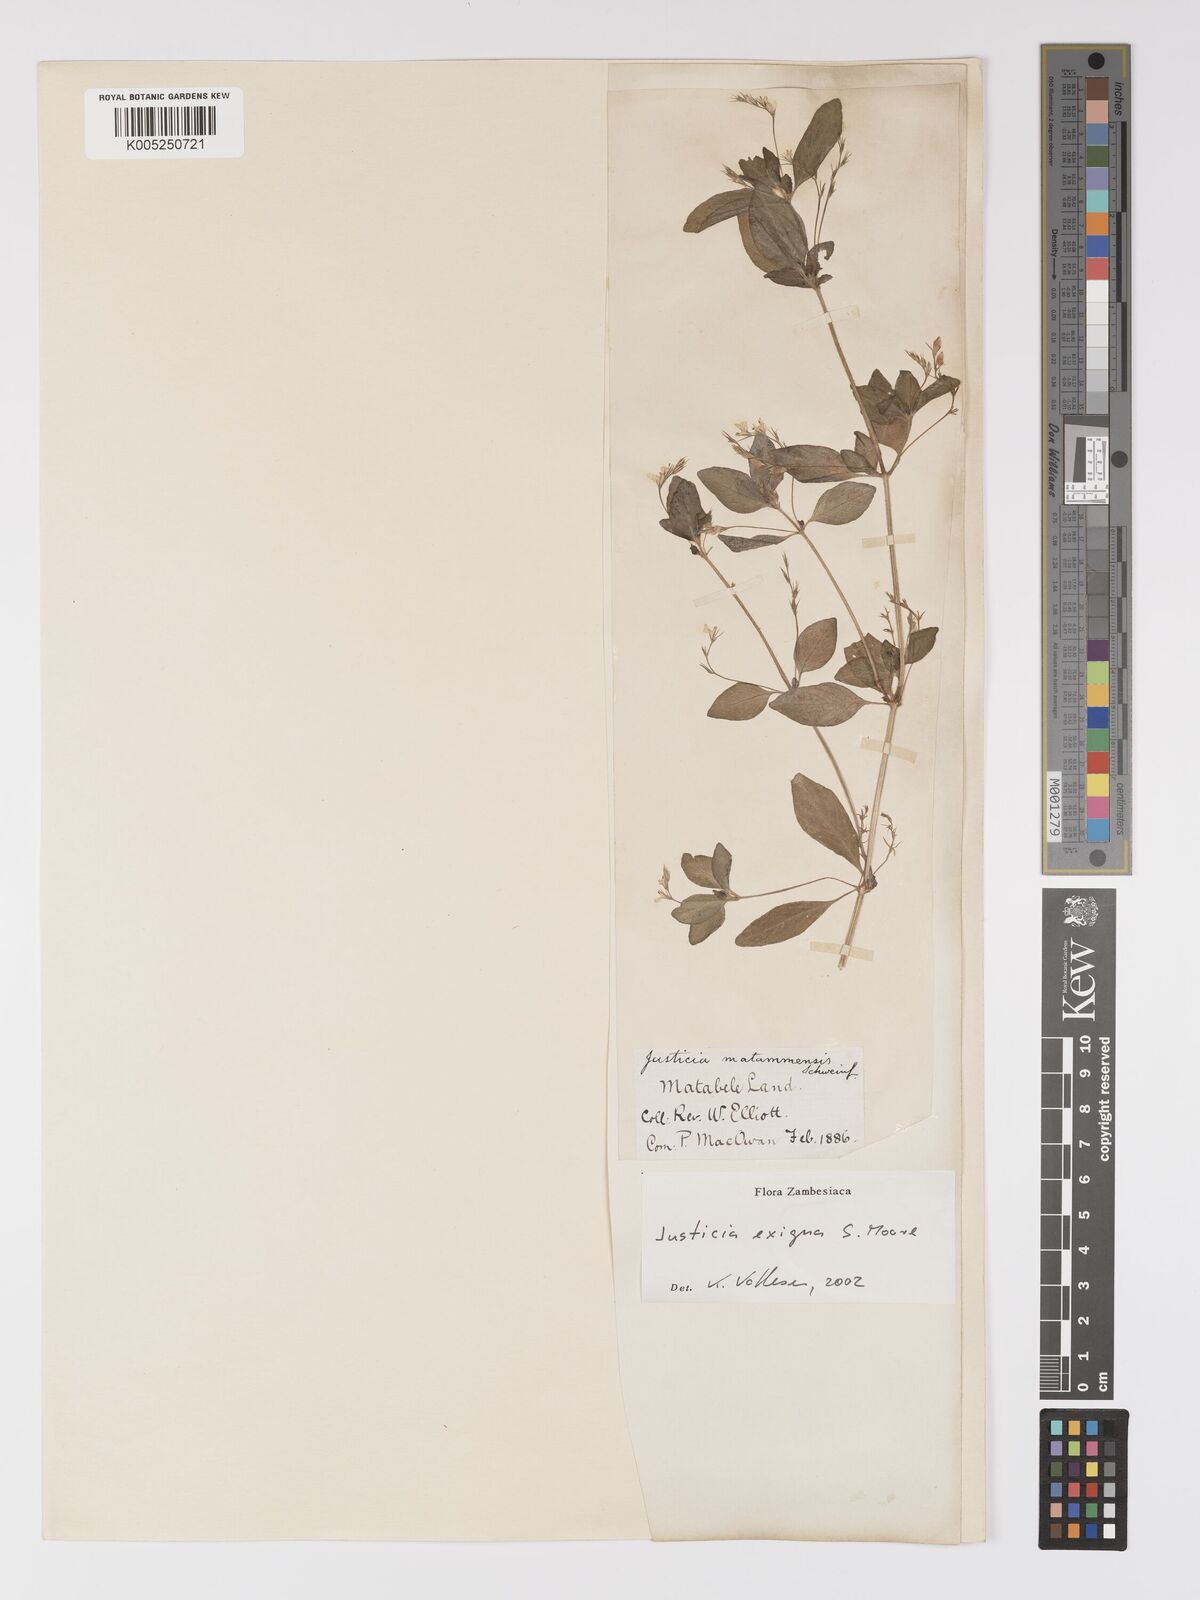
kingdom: Plantae
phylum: Tracheophyta
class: Magnoliopsida
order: Lamiales
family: Acanthaceae
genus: Justicia
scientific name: Justicia exigua
